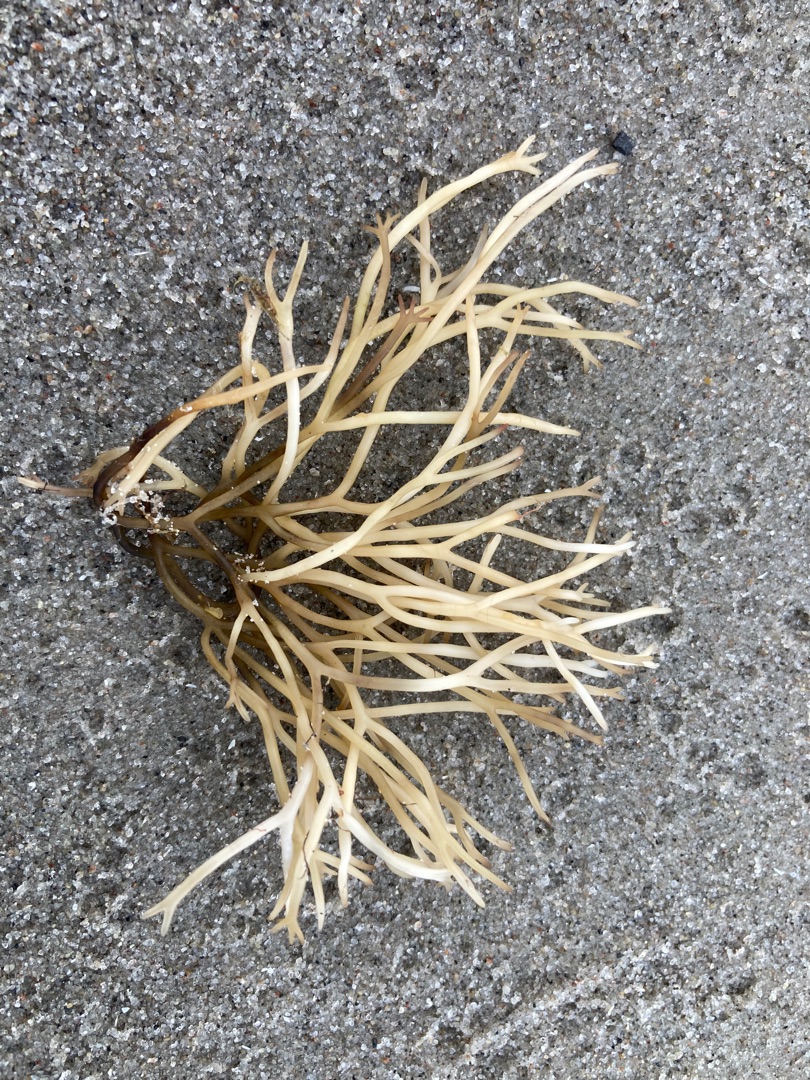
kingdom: Plantae
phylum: Rhodophyta
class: Florideophyceae
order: Gigartinales
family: Polyidaceae
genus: Polyides
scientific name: Polyides rotunda
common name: Rødkløft
